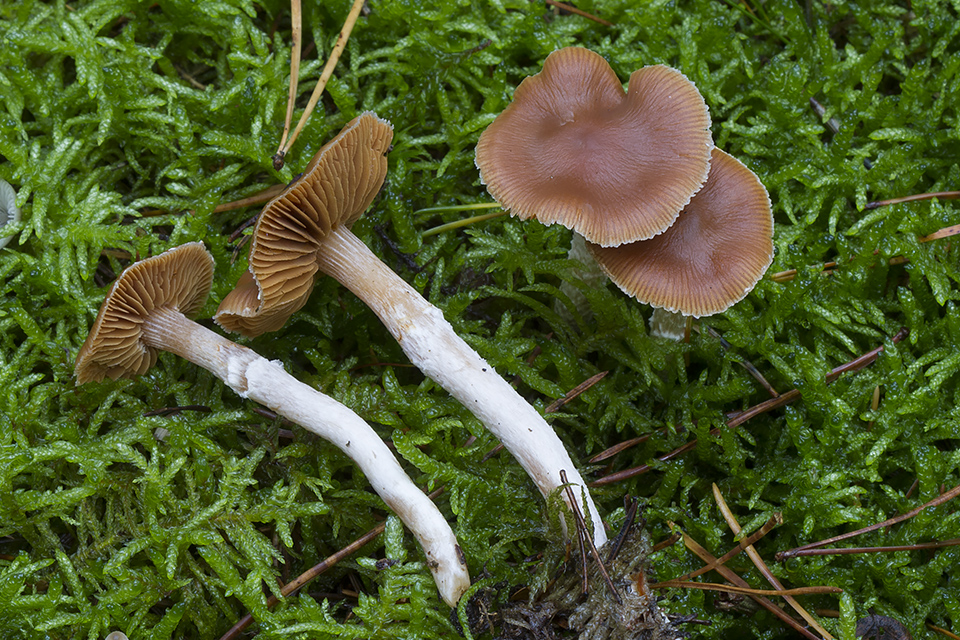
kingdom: Fungi
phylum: Basidiomycota
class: Agaricomycetes
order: Agaricales
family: Cortinariaceae
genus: Cortinarius
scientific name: Cortinarius
